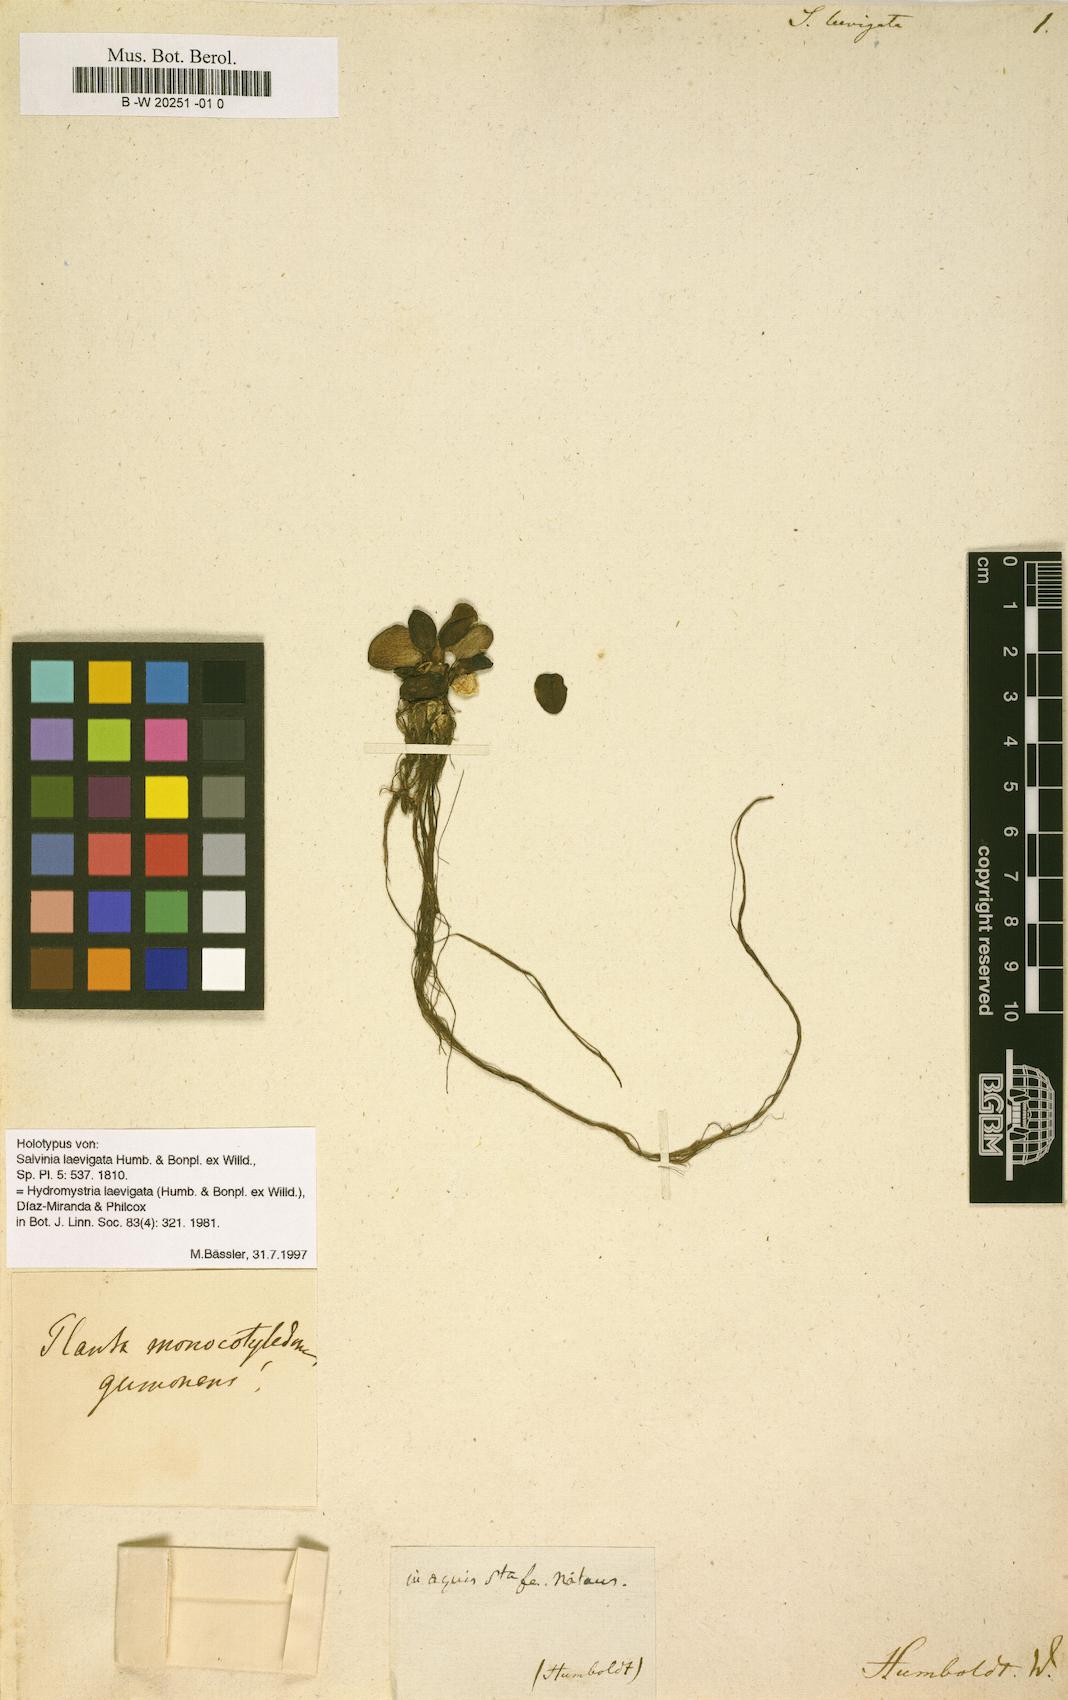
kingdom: Plantae
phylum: Tracheophyta
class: Polypodiopsida
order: Salviniales
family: Salviniaceae
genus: Salvinia
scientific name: Salvinia delasotae
